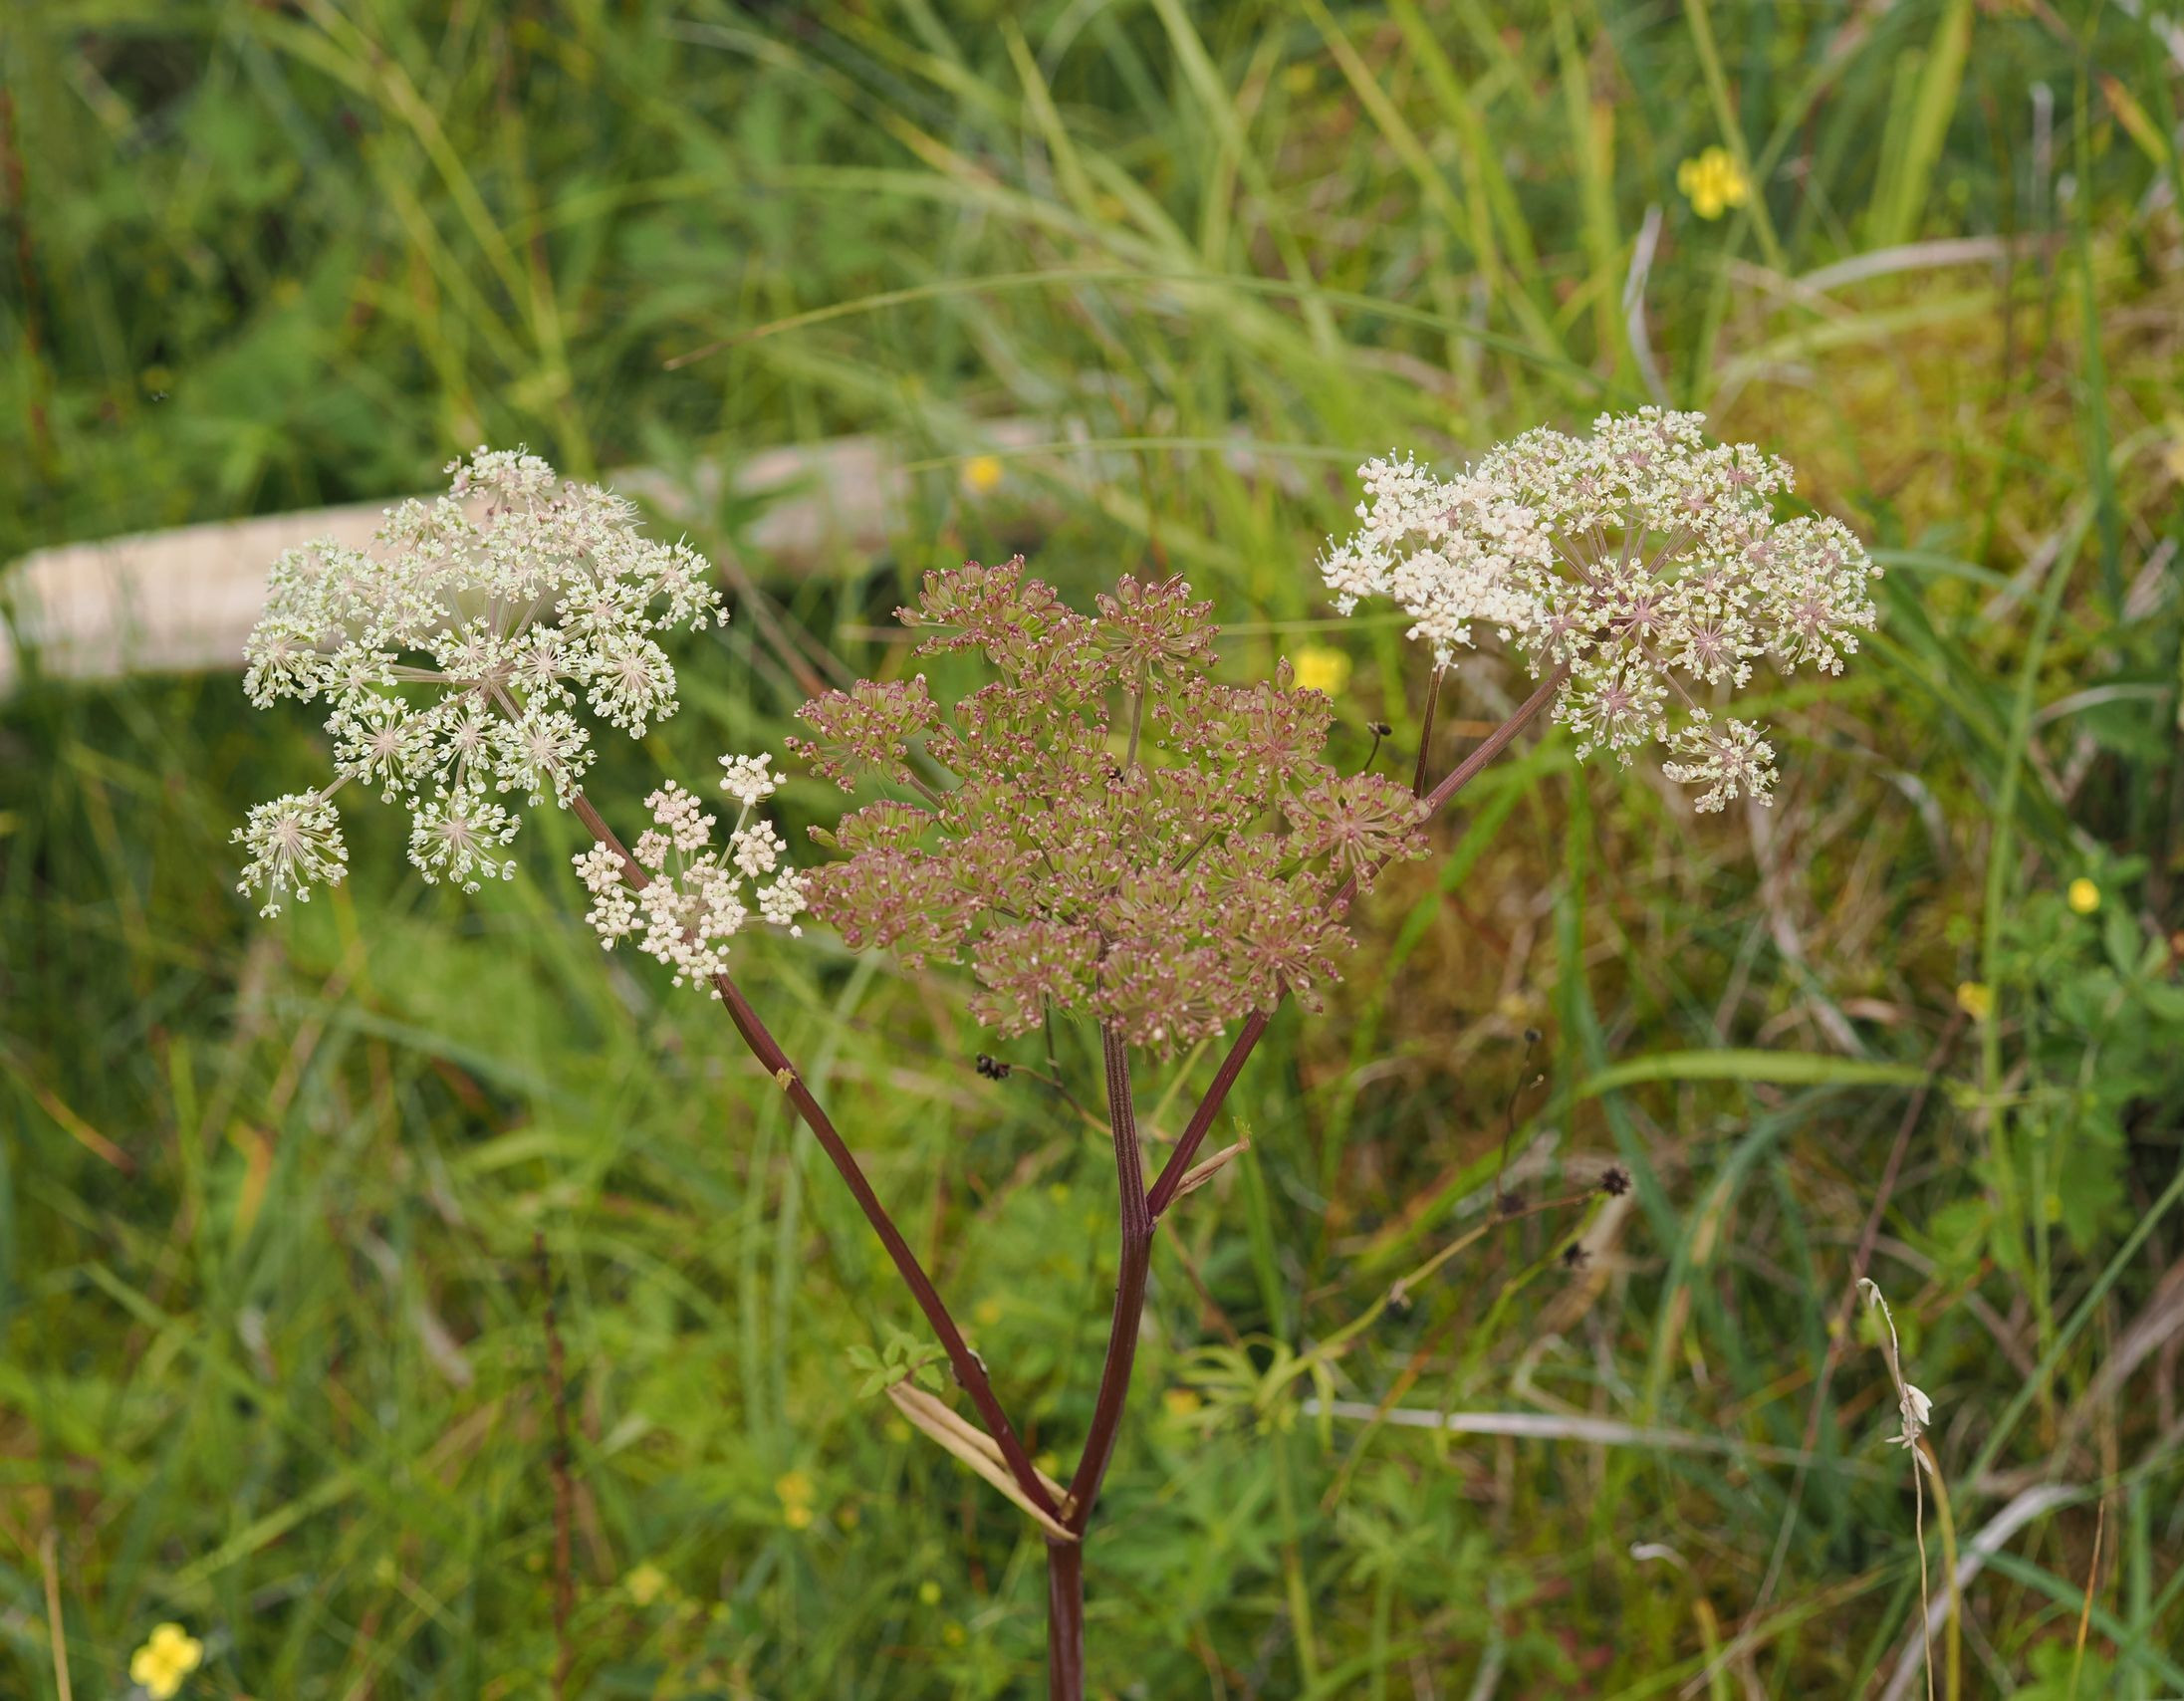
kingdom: Plantae
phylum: Tracheophyta
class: Magnoliopsida
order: Apiales
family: Apiaceae
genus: Angelica
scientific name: Angelica sylvestris
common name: Angelik
